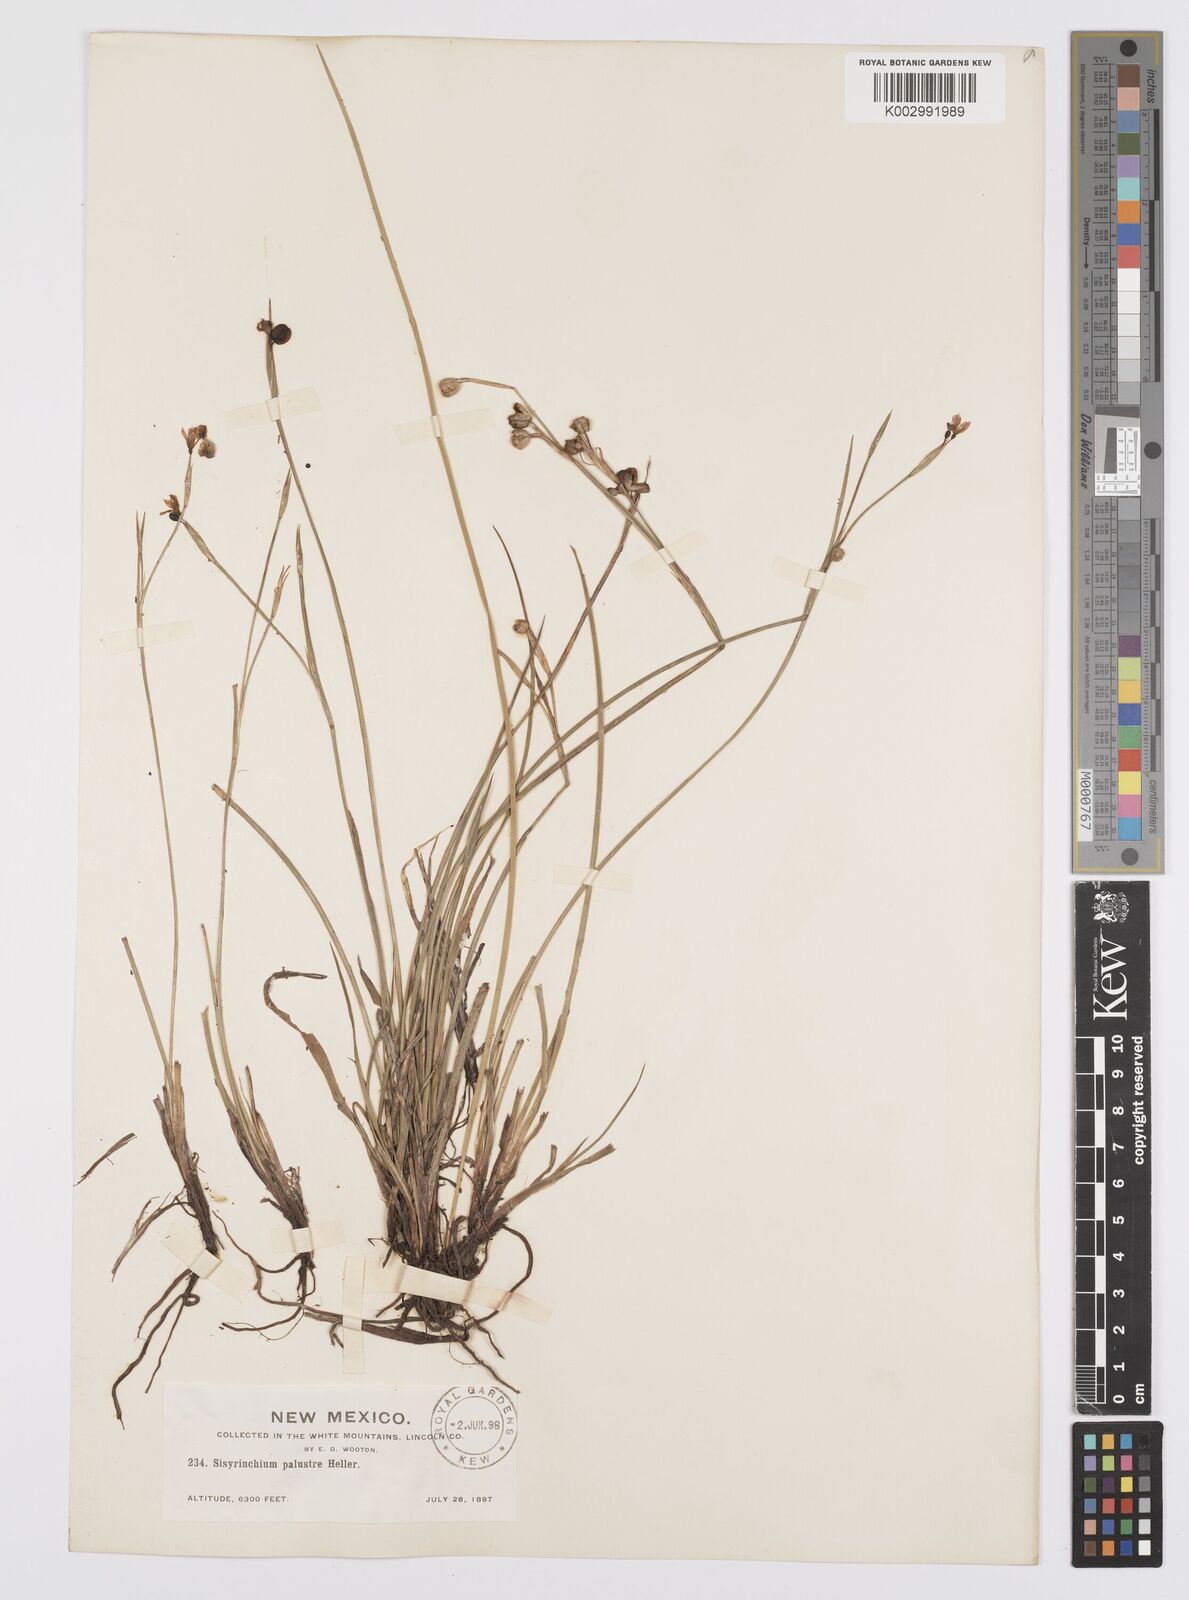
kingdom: Plantae
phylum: Tracheophyta
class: Liliopsida
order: Asparagales
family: Iridaceae
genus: Sisyrinchium
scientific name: Sisyrinchium palustre
